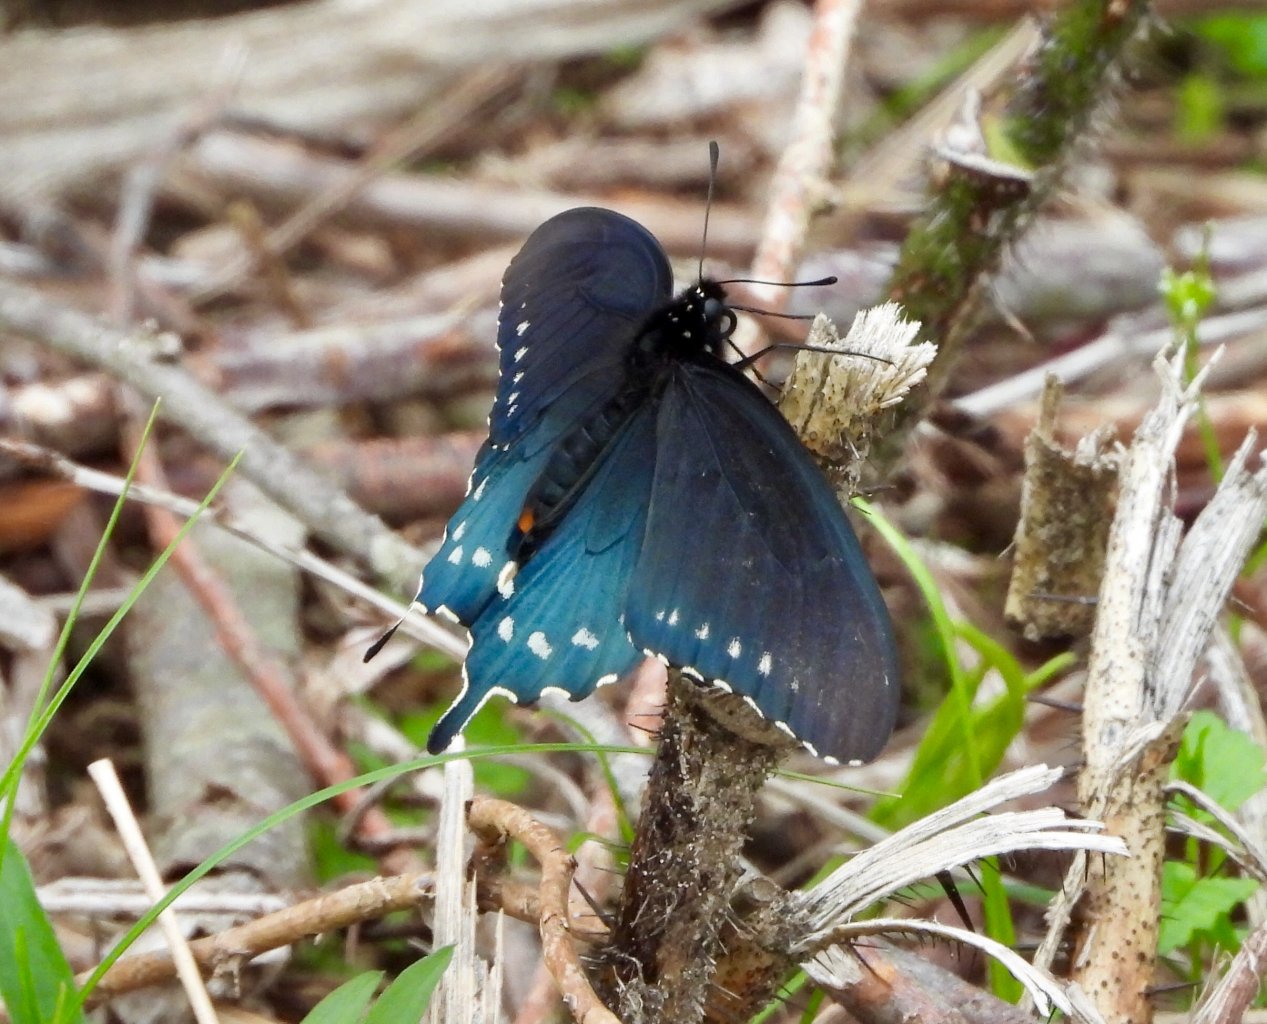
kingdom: Animalia
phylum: Arthropoda
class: Insecta
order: Lepidoptera
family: Papilionidae
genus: Battus
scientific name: Battus philenor
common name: Pipevine Swallowtail
